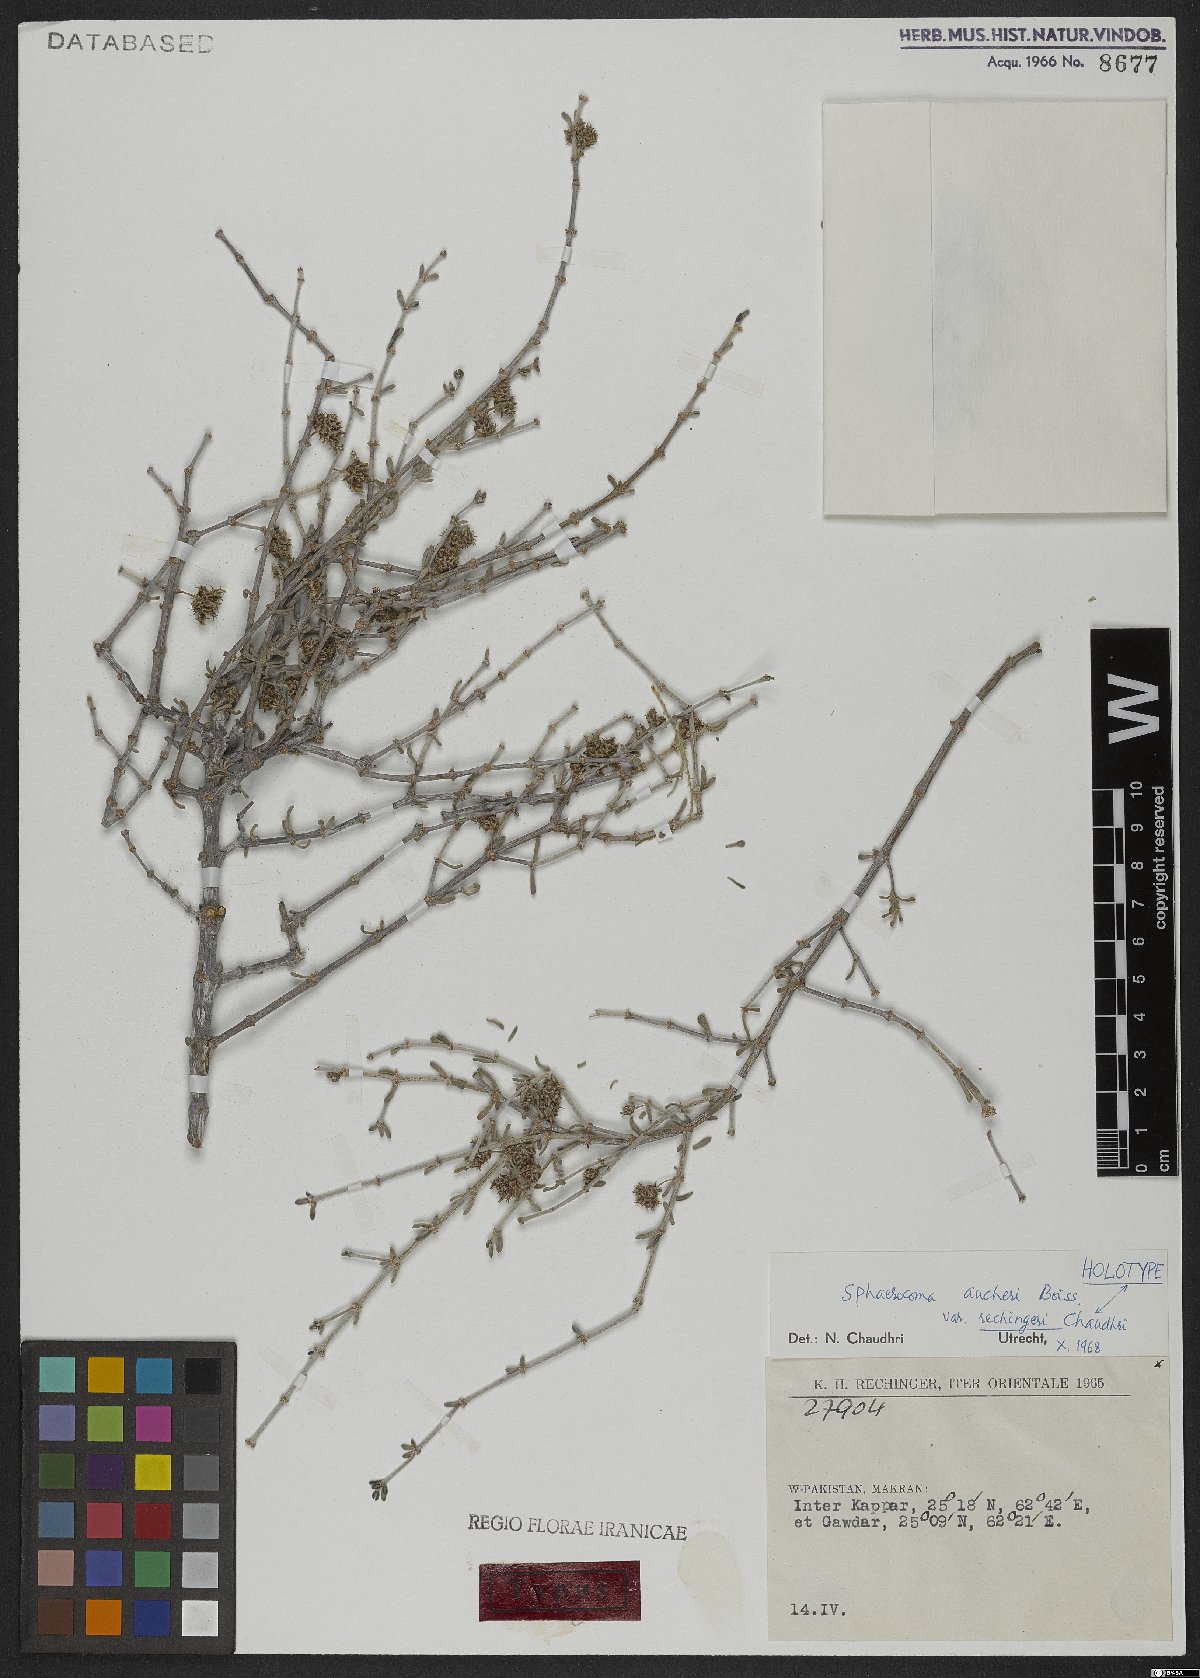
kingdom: Plantae
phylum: Tracheophyta
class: Magnoliopsida
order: Caryophyllales
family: Caryophyllaceae
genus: Sphaerocoma
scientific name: Sphaerocoma hookeri
